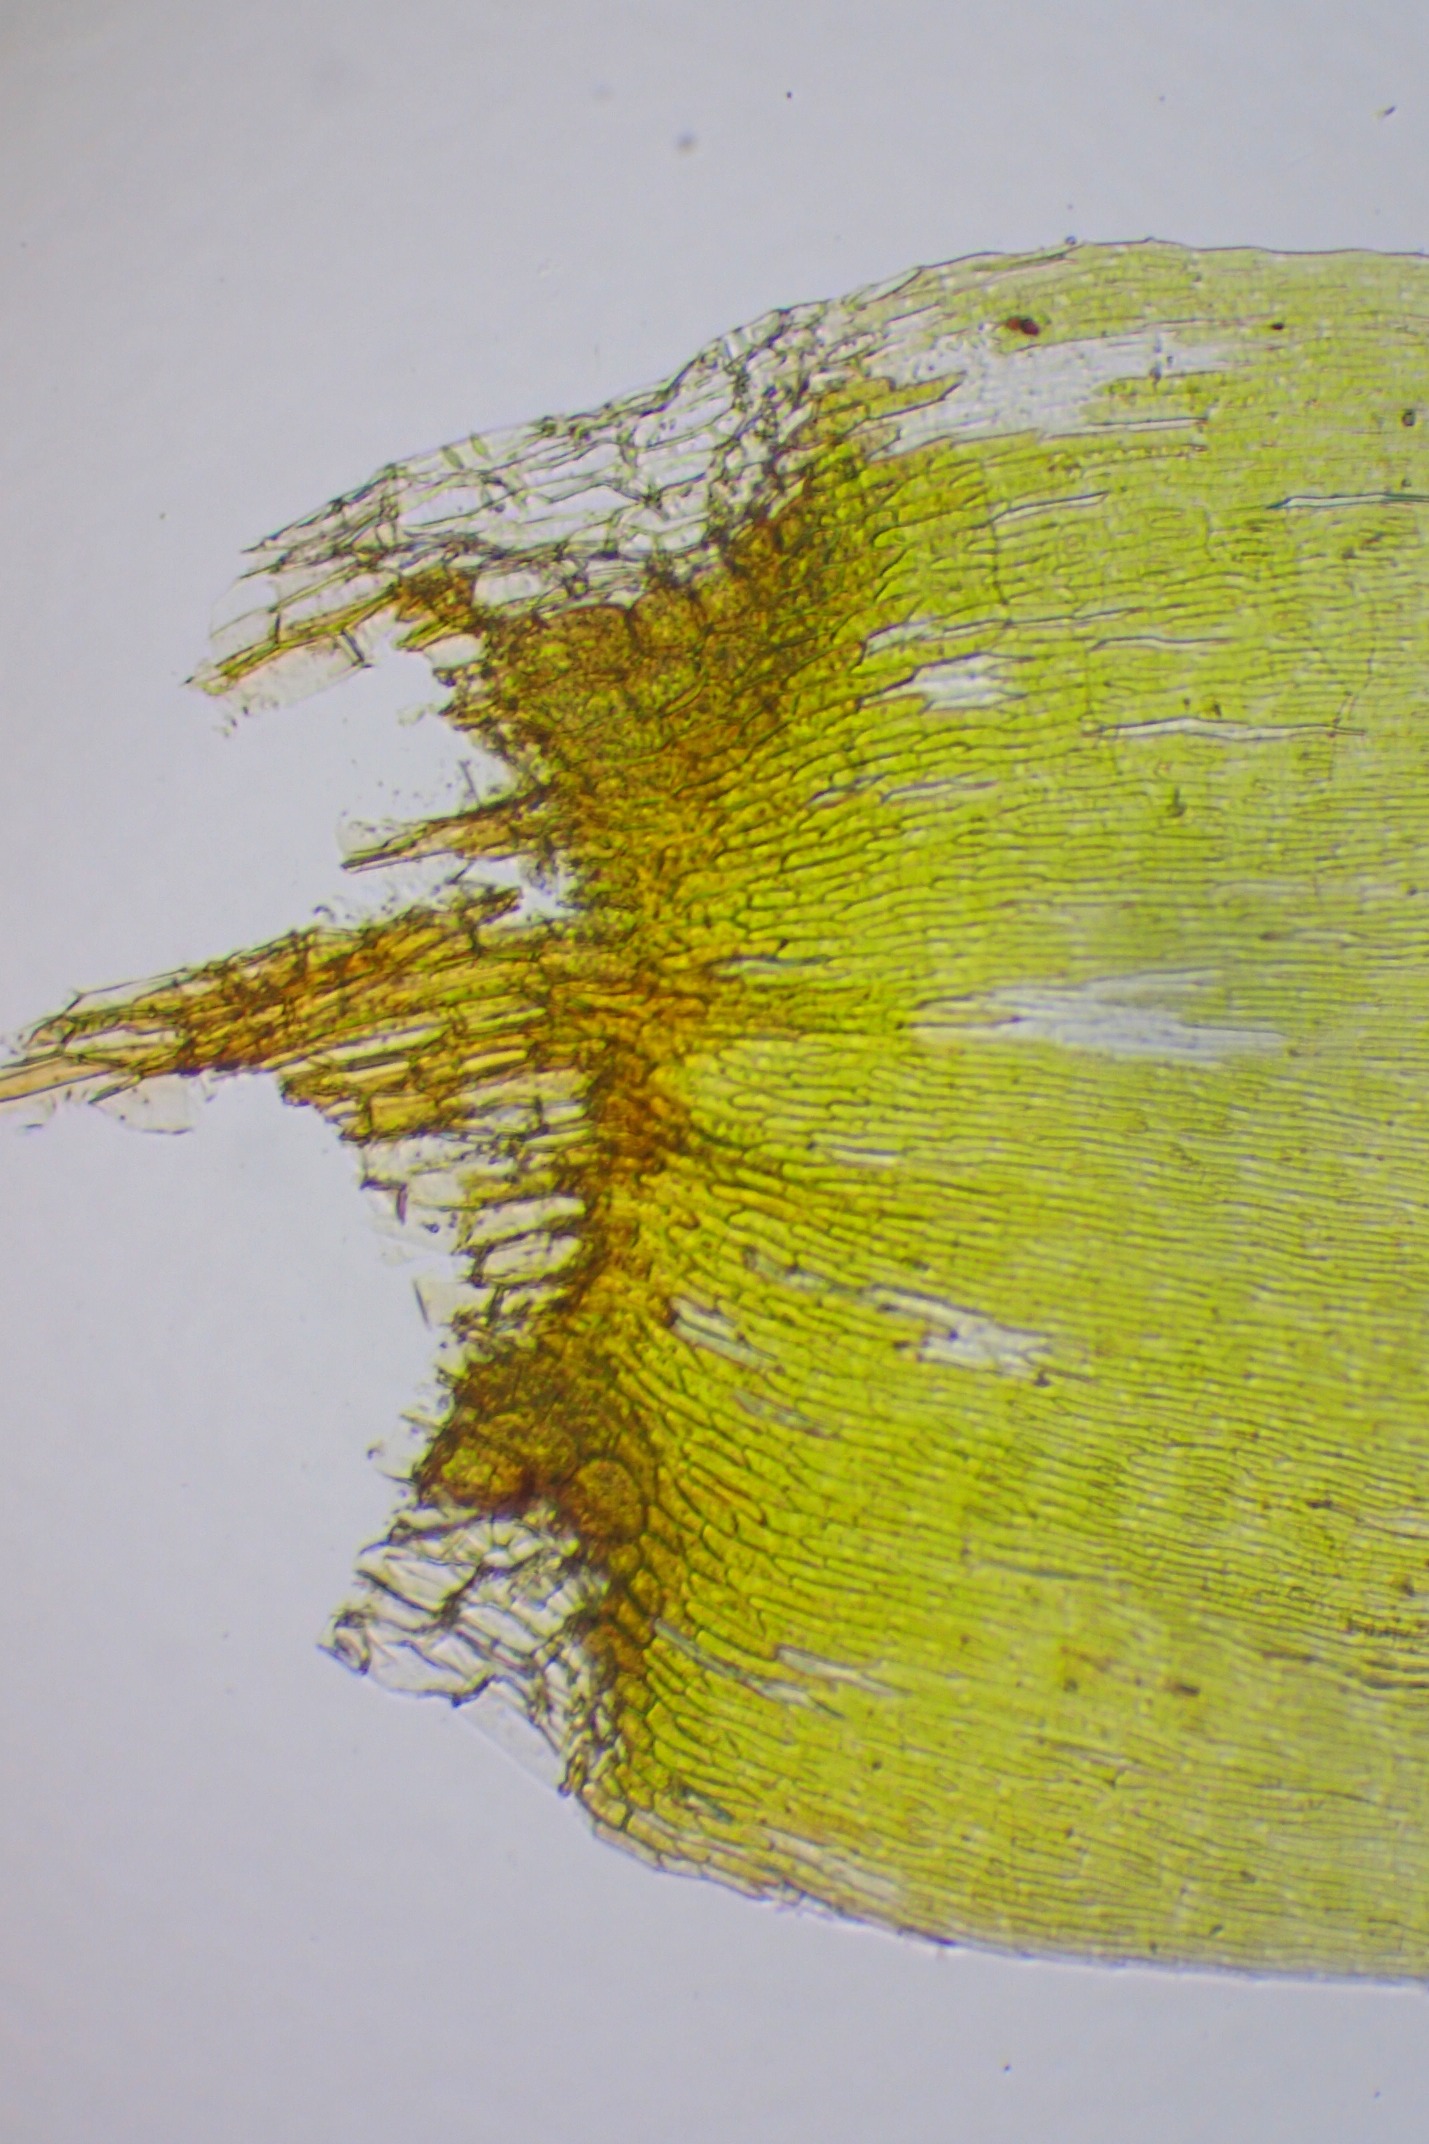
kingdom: Plantae
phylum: Bryophyta
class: Bryopsida
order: Hypnales
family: Pylaisiaceae
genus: Calliergonella
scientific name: Calliergonella cuspidata
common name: Spids spydmos
